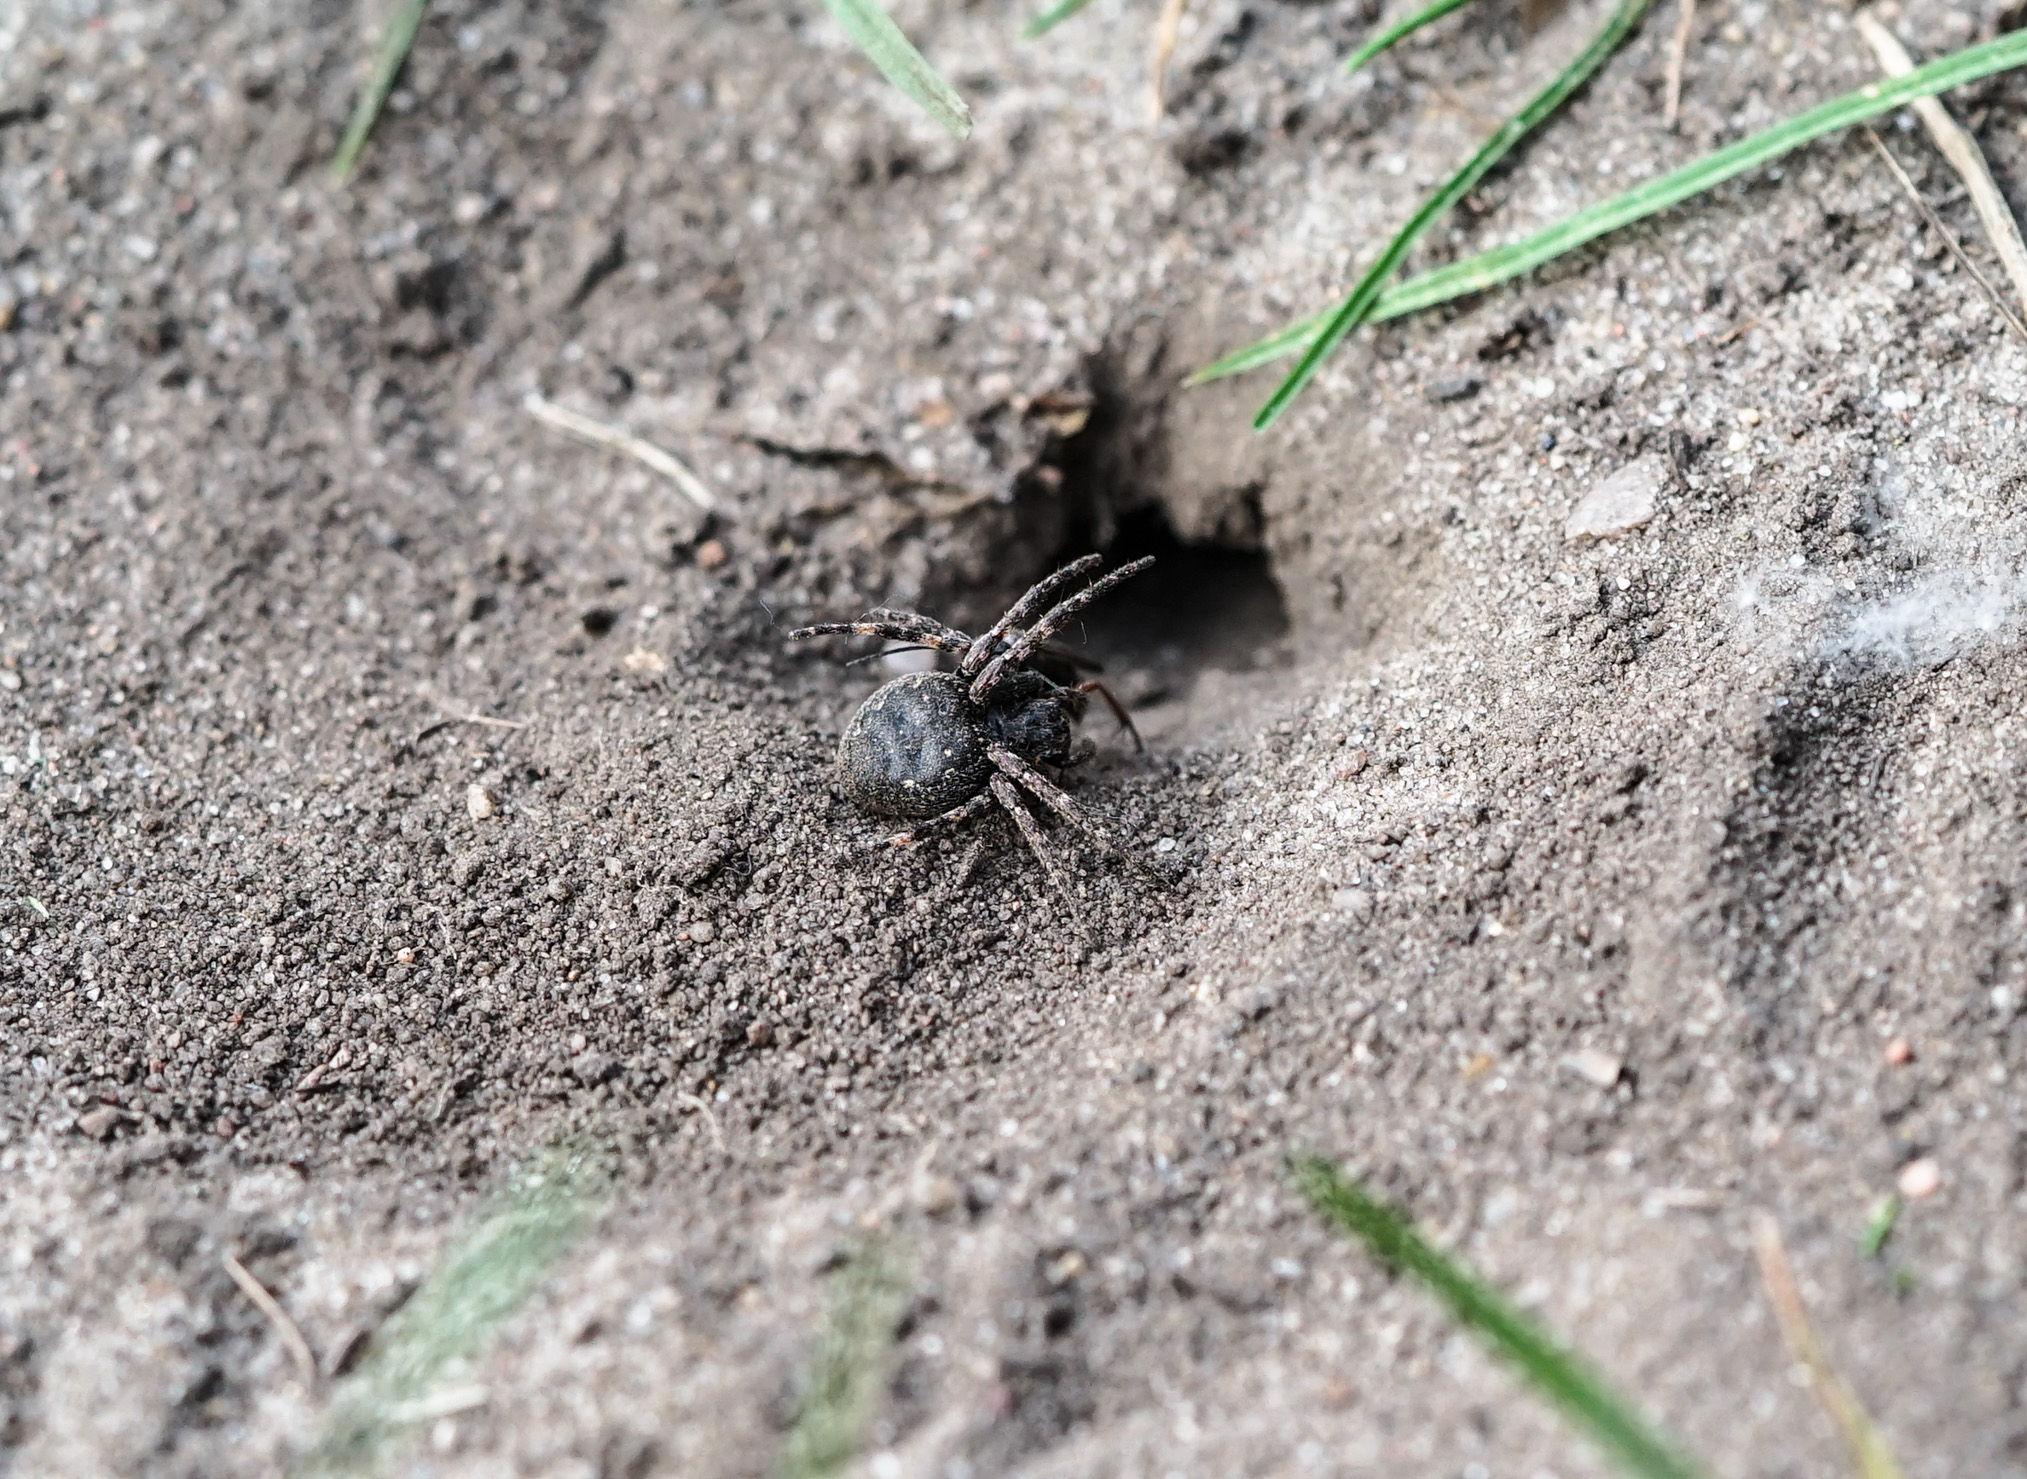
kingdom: Animalia
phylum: Arthropoda
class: Insecta
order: Hymenoptera
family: Pompilidae
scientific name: Pompilidae
